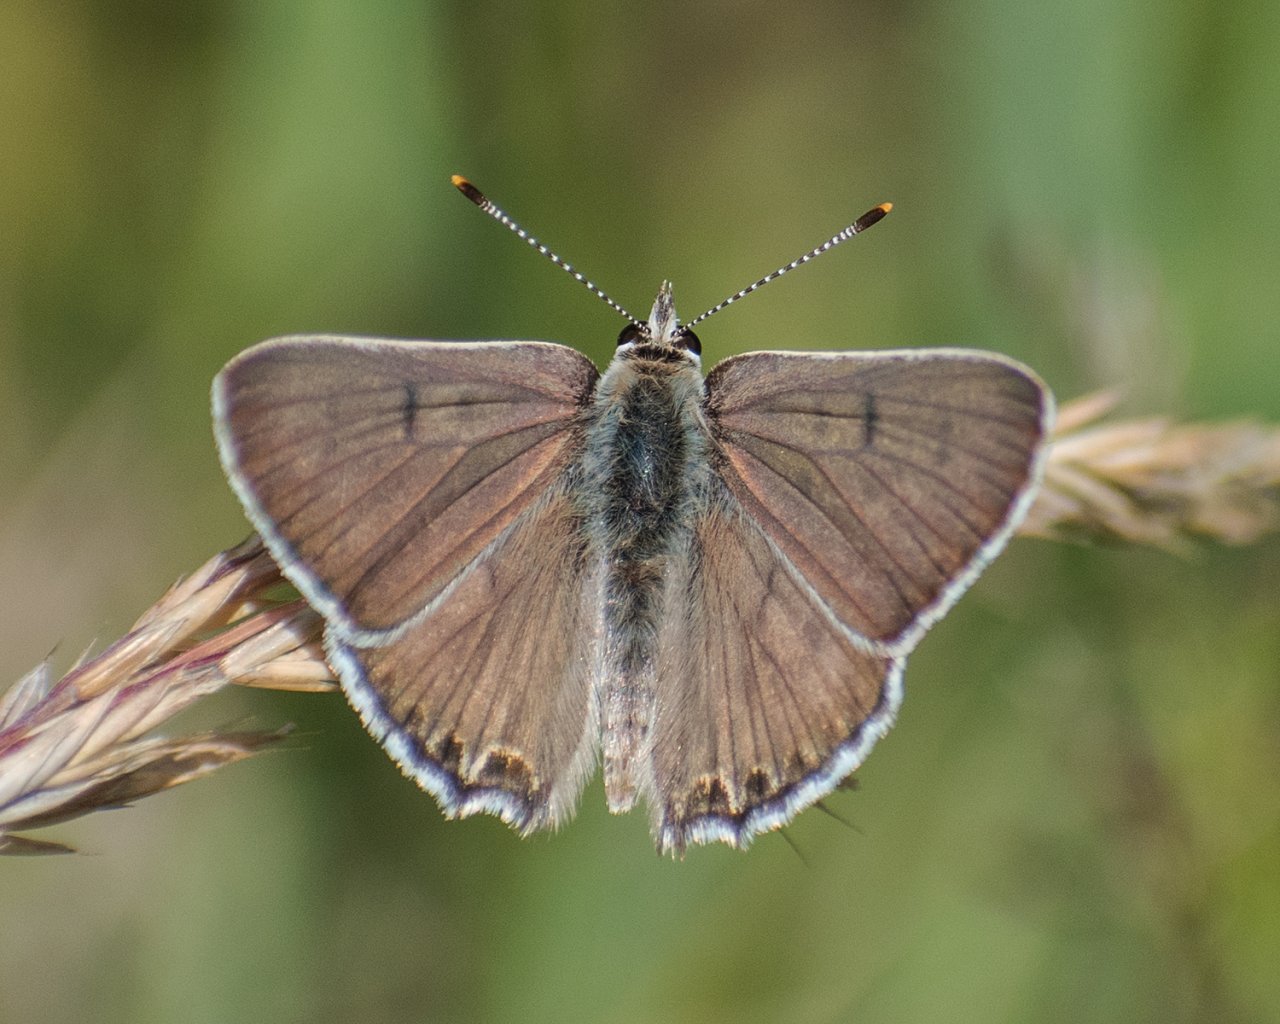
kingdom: Animalia
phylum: Arthropoda
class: Insecta
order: Lepidoptera
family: Lycaenidae
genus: Lycaena
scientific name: Lycaena editha
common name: Edith's Copper
